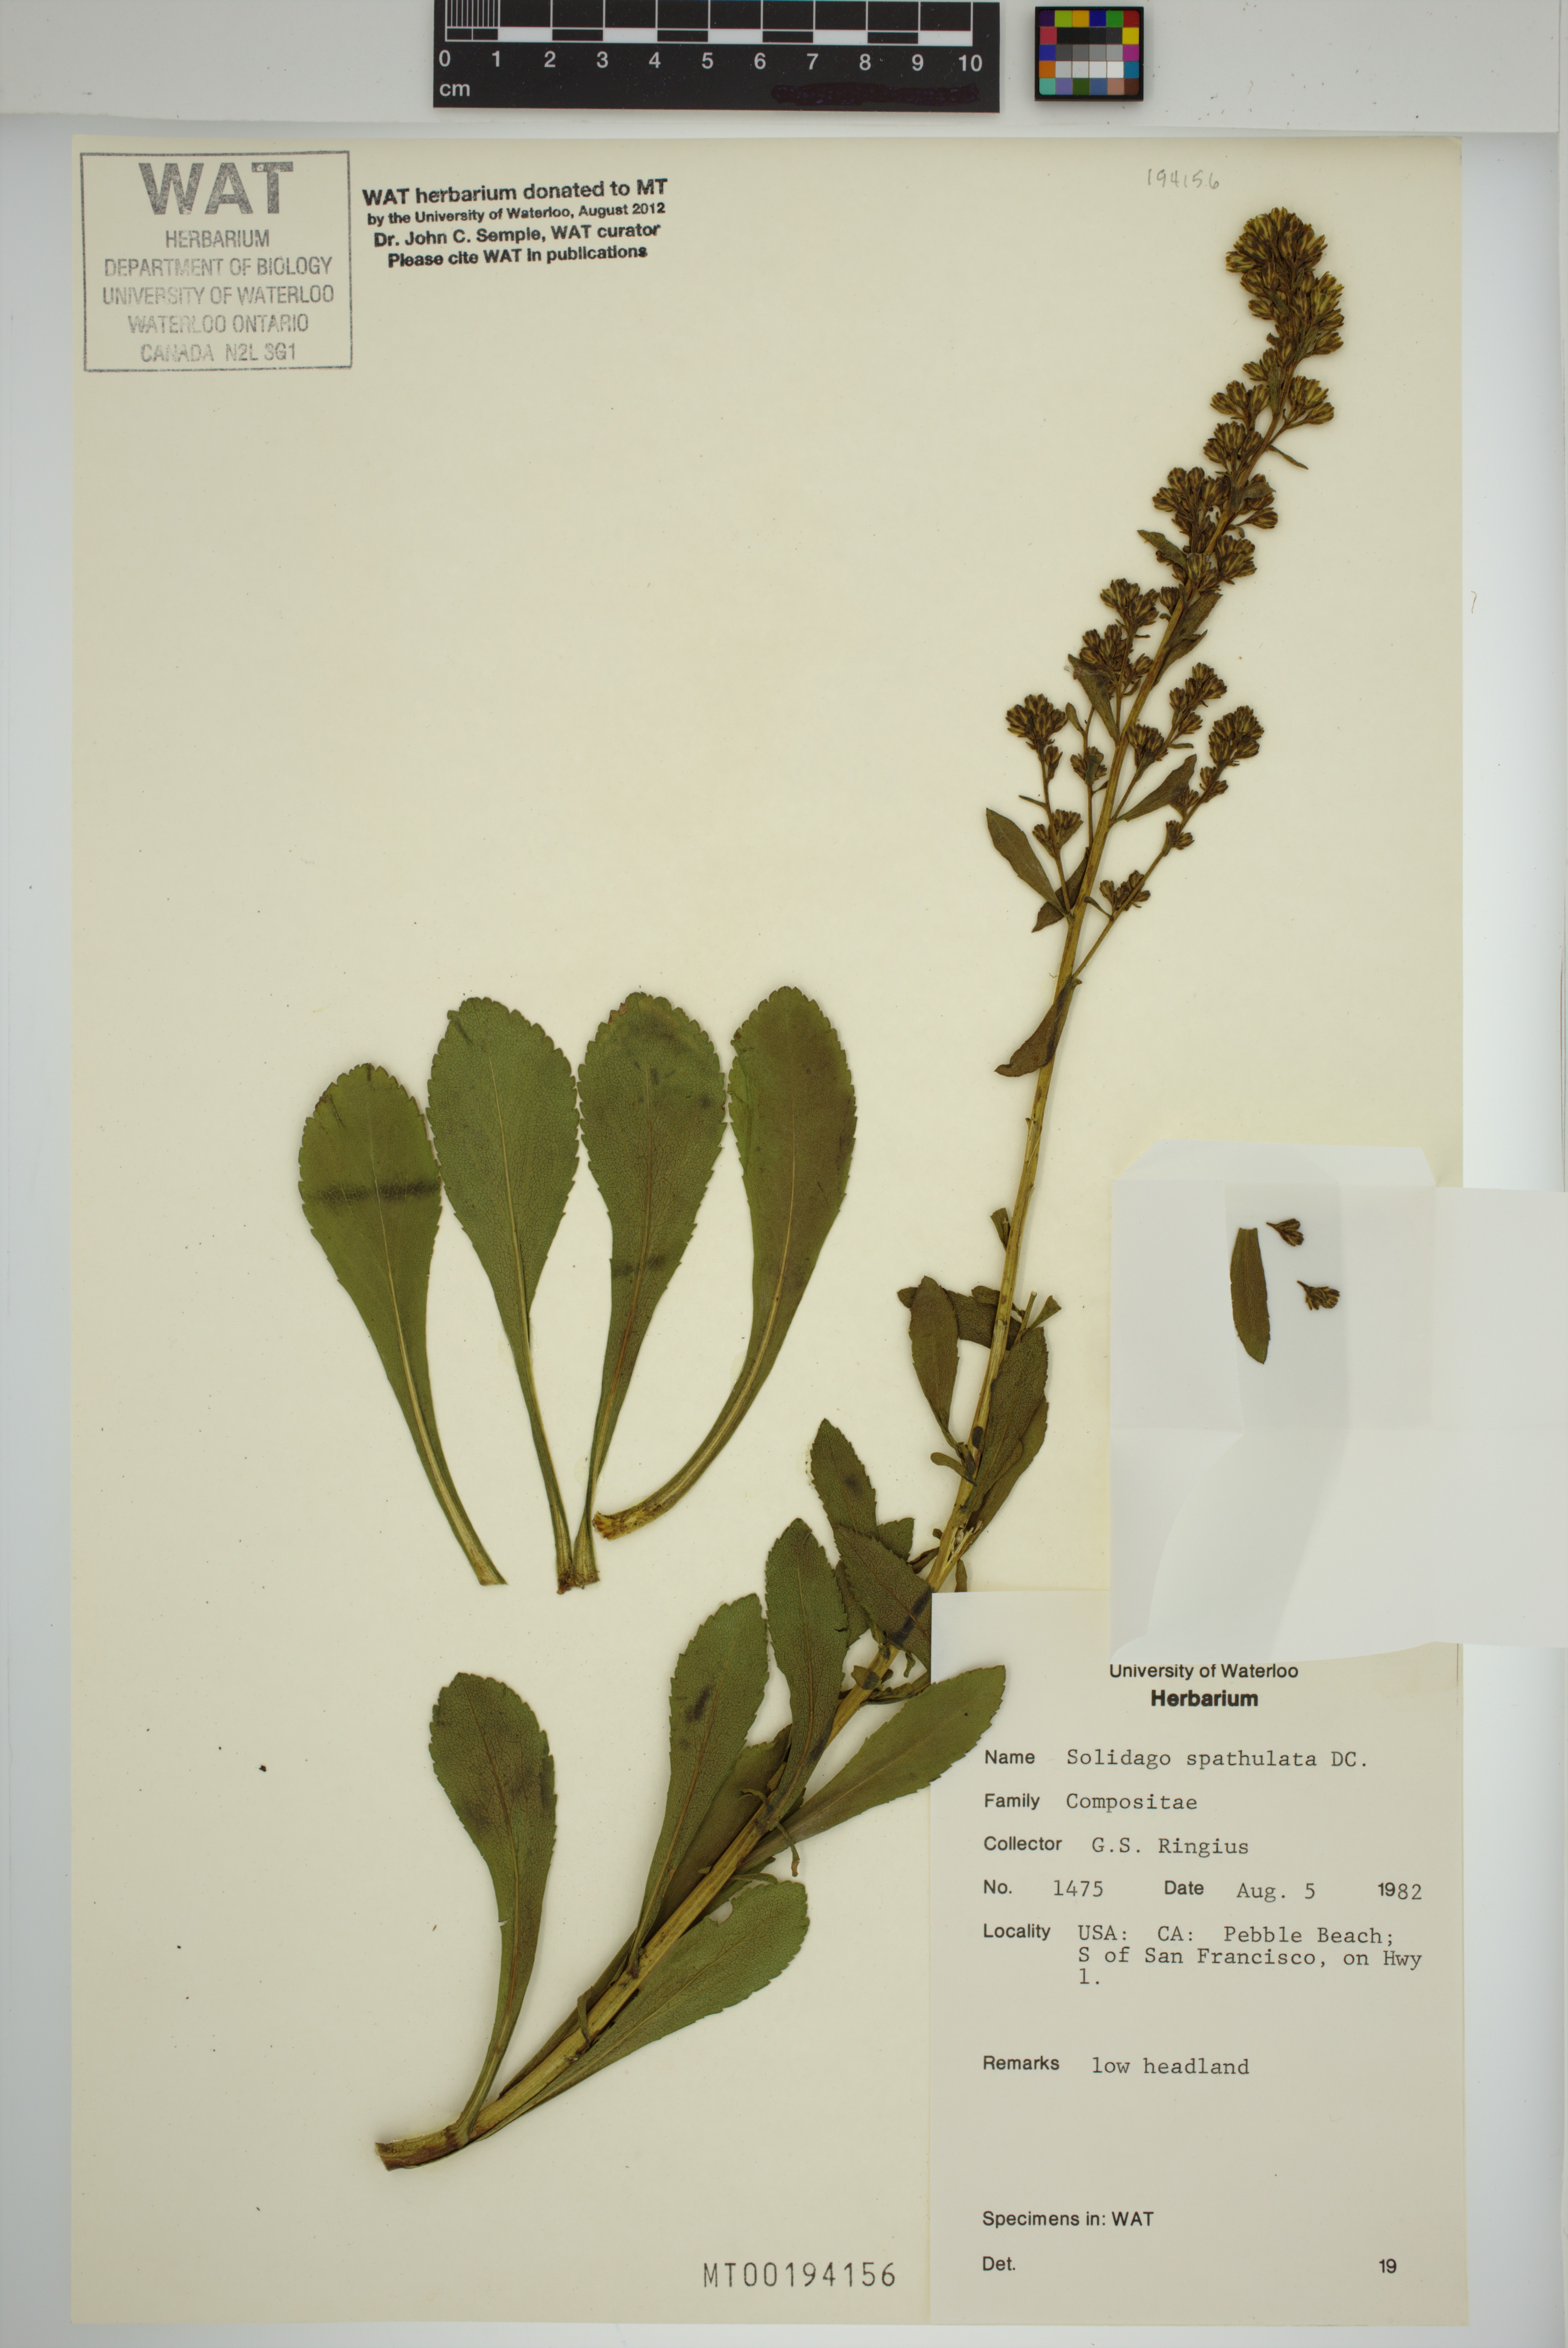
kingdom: Plantae
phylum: Tracheophyta
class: Magnoliopsida
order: Asterales
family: Asteraceae
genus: Solidago
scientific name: Solidago spathulata
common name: Coast goldenrod
